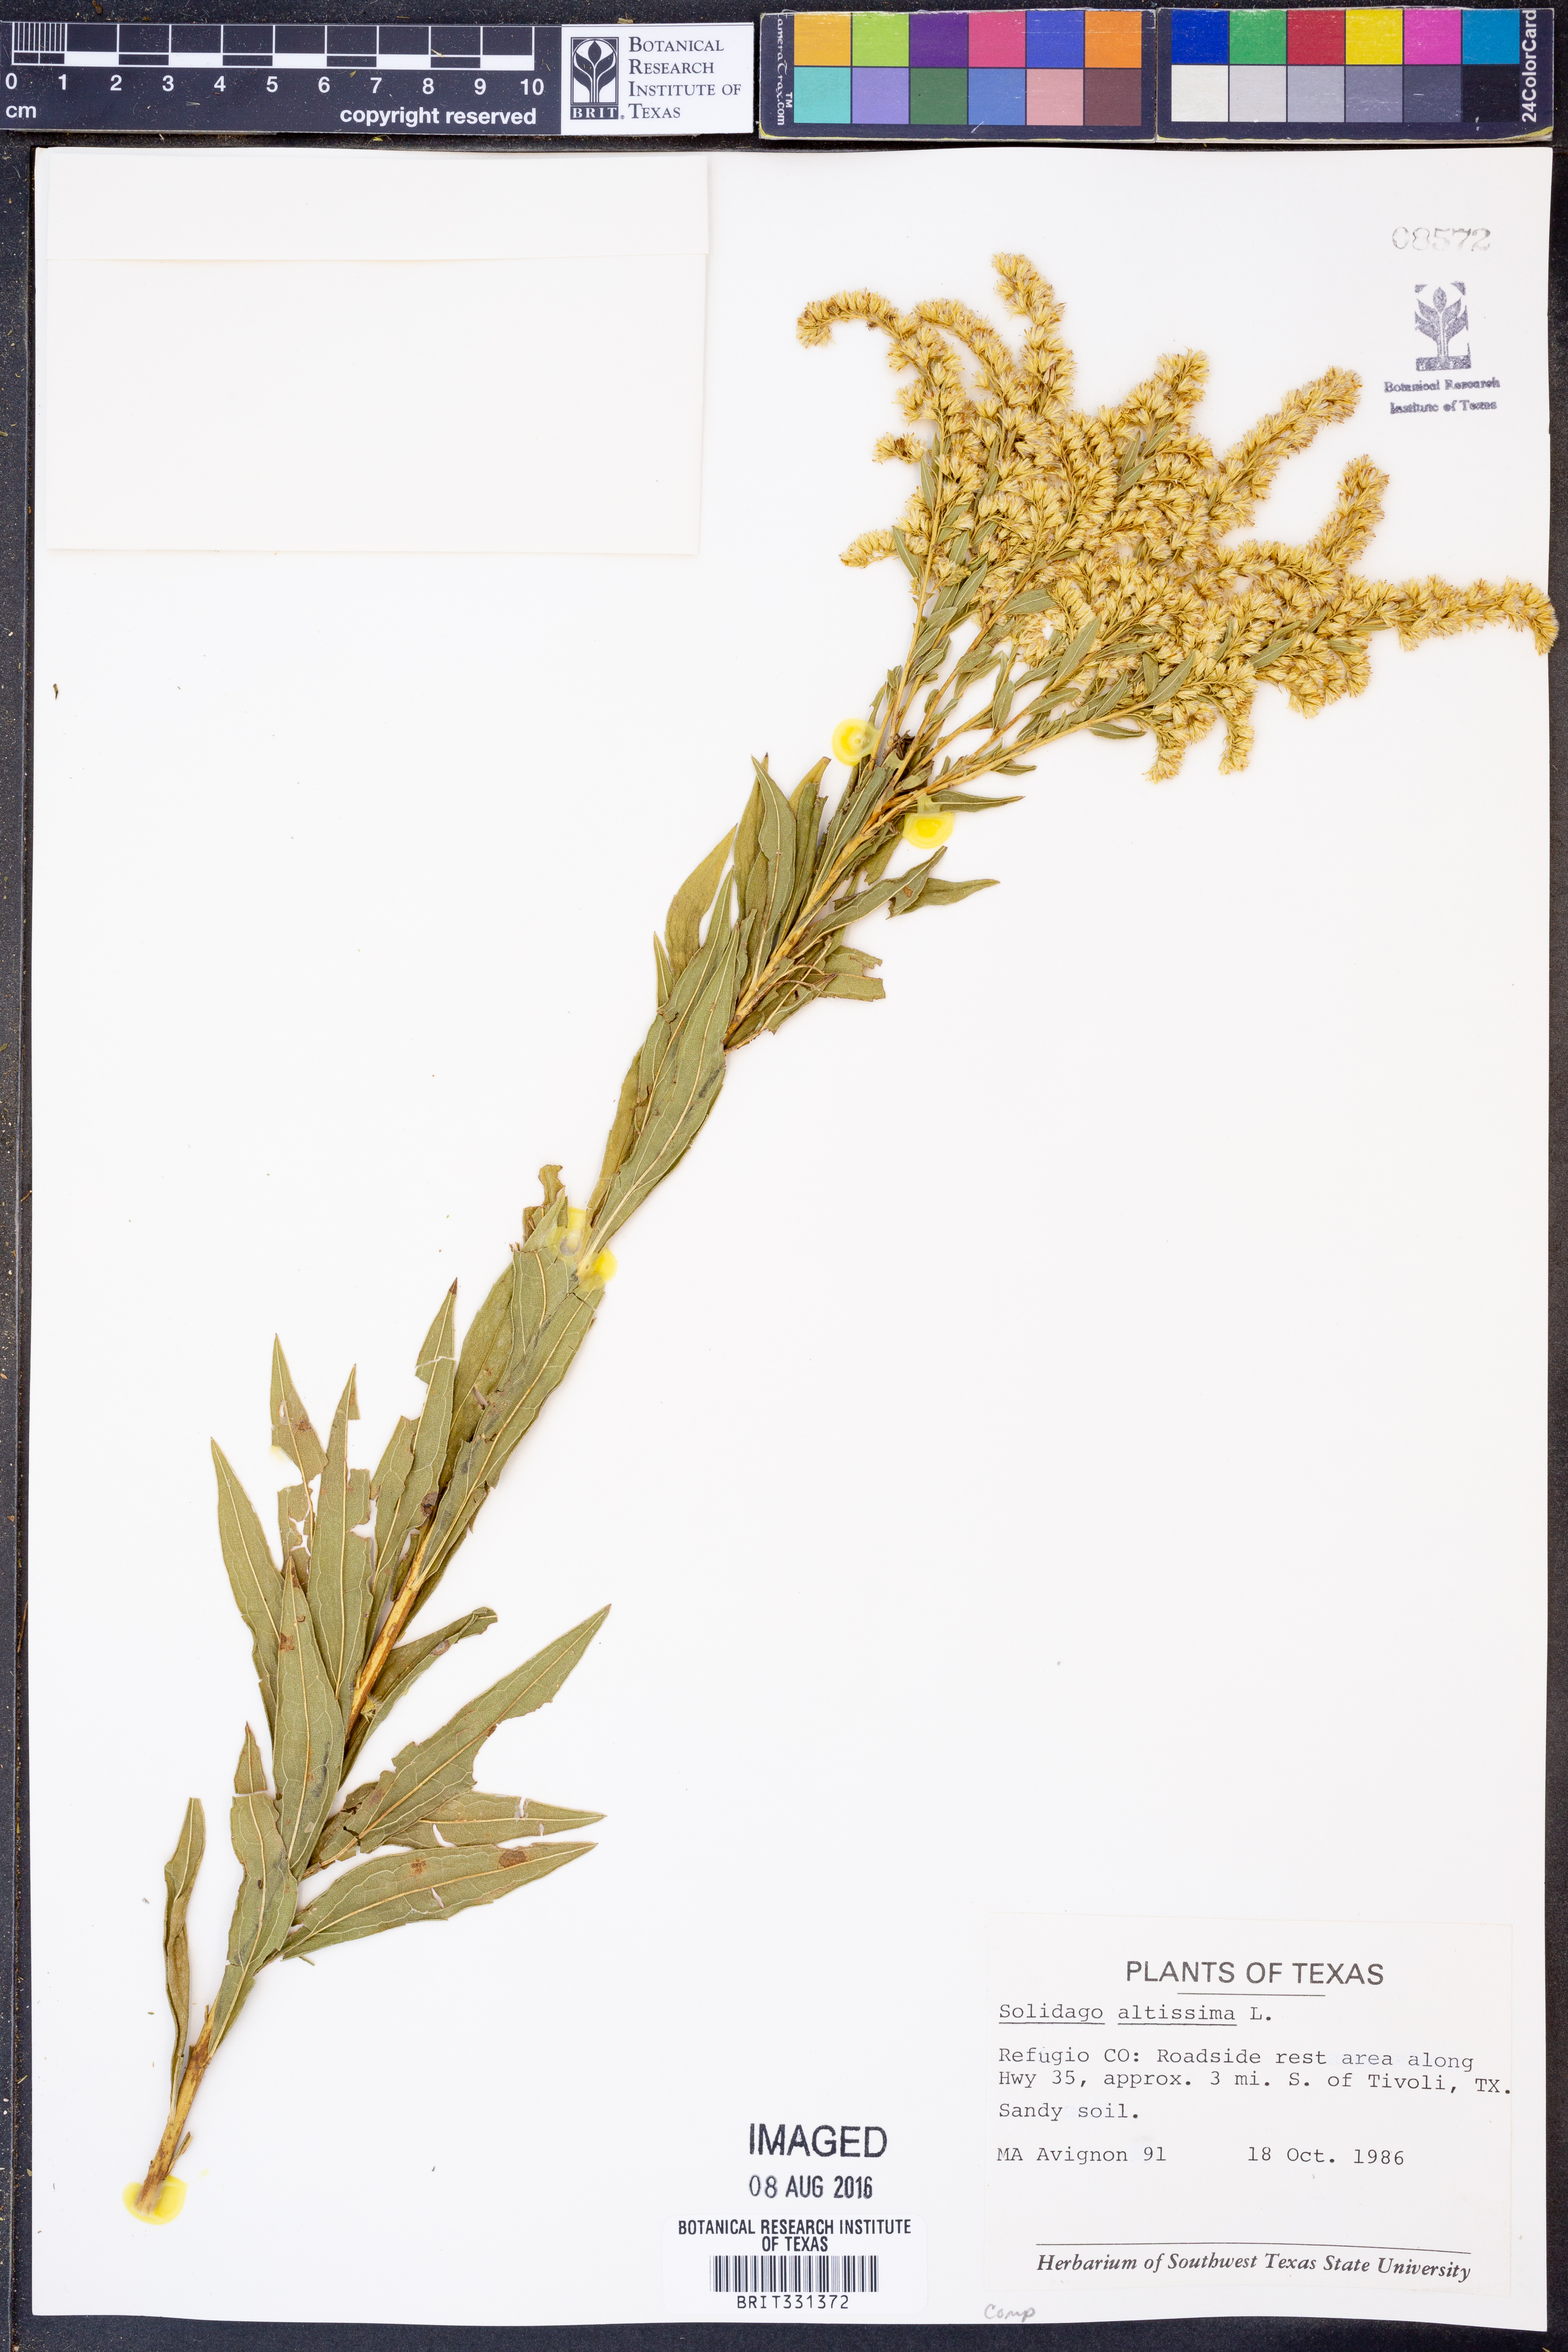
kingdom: Plantae
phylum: Tracheophyta
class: Magnoliopsida
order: Asterales
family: Asteraceae
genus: Solidago
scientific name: Solidago altissima
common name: Late goldenrod
